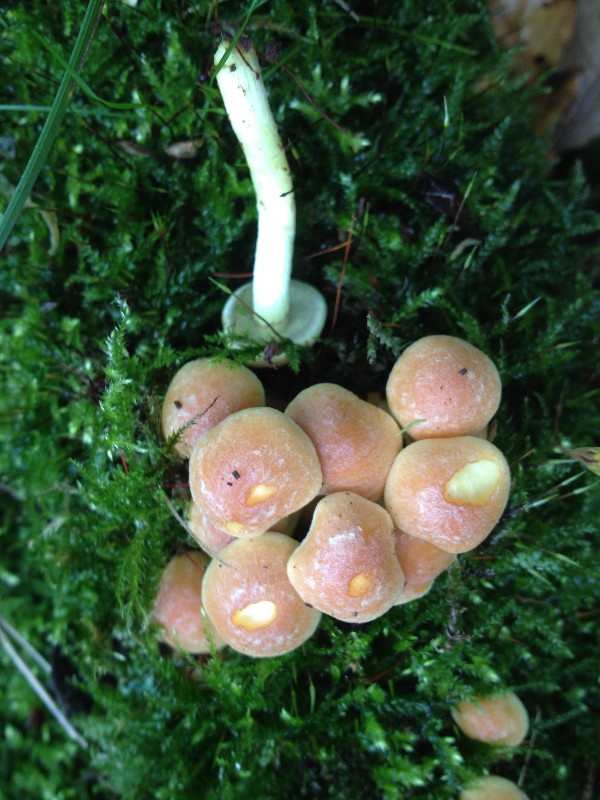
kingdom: Fungi
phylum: Basidiomycota
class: Agaricomycetes
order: Agaricales
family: Strophariaceae
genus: Hypholoma
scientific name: Hypholoma fasciculare
